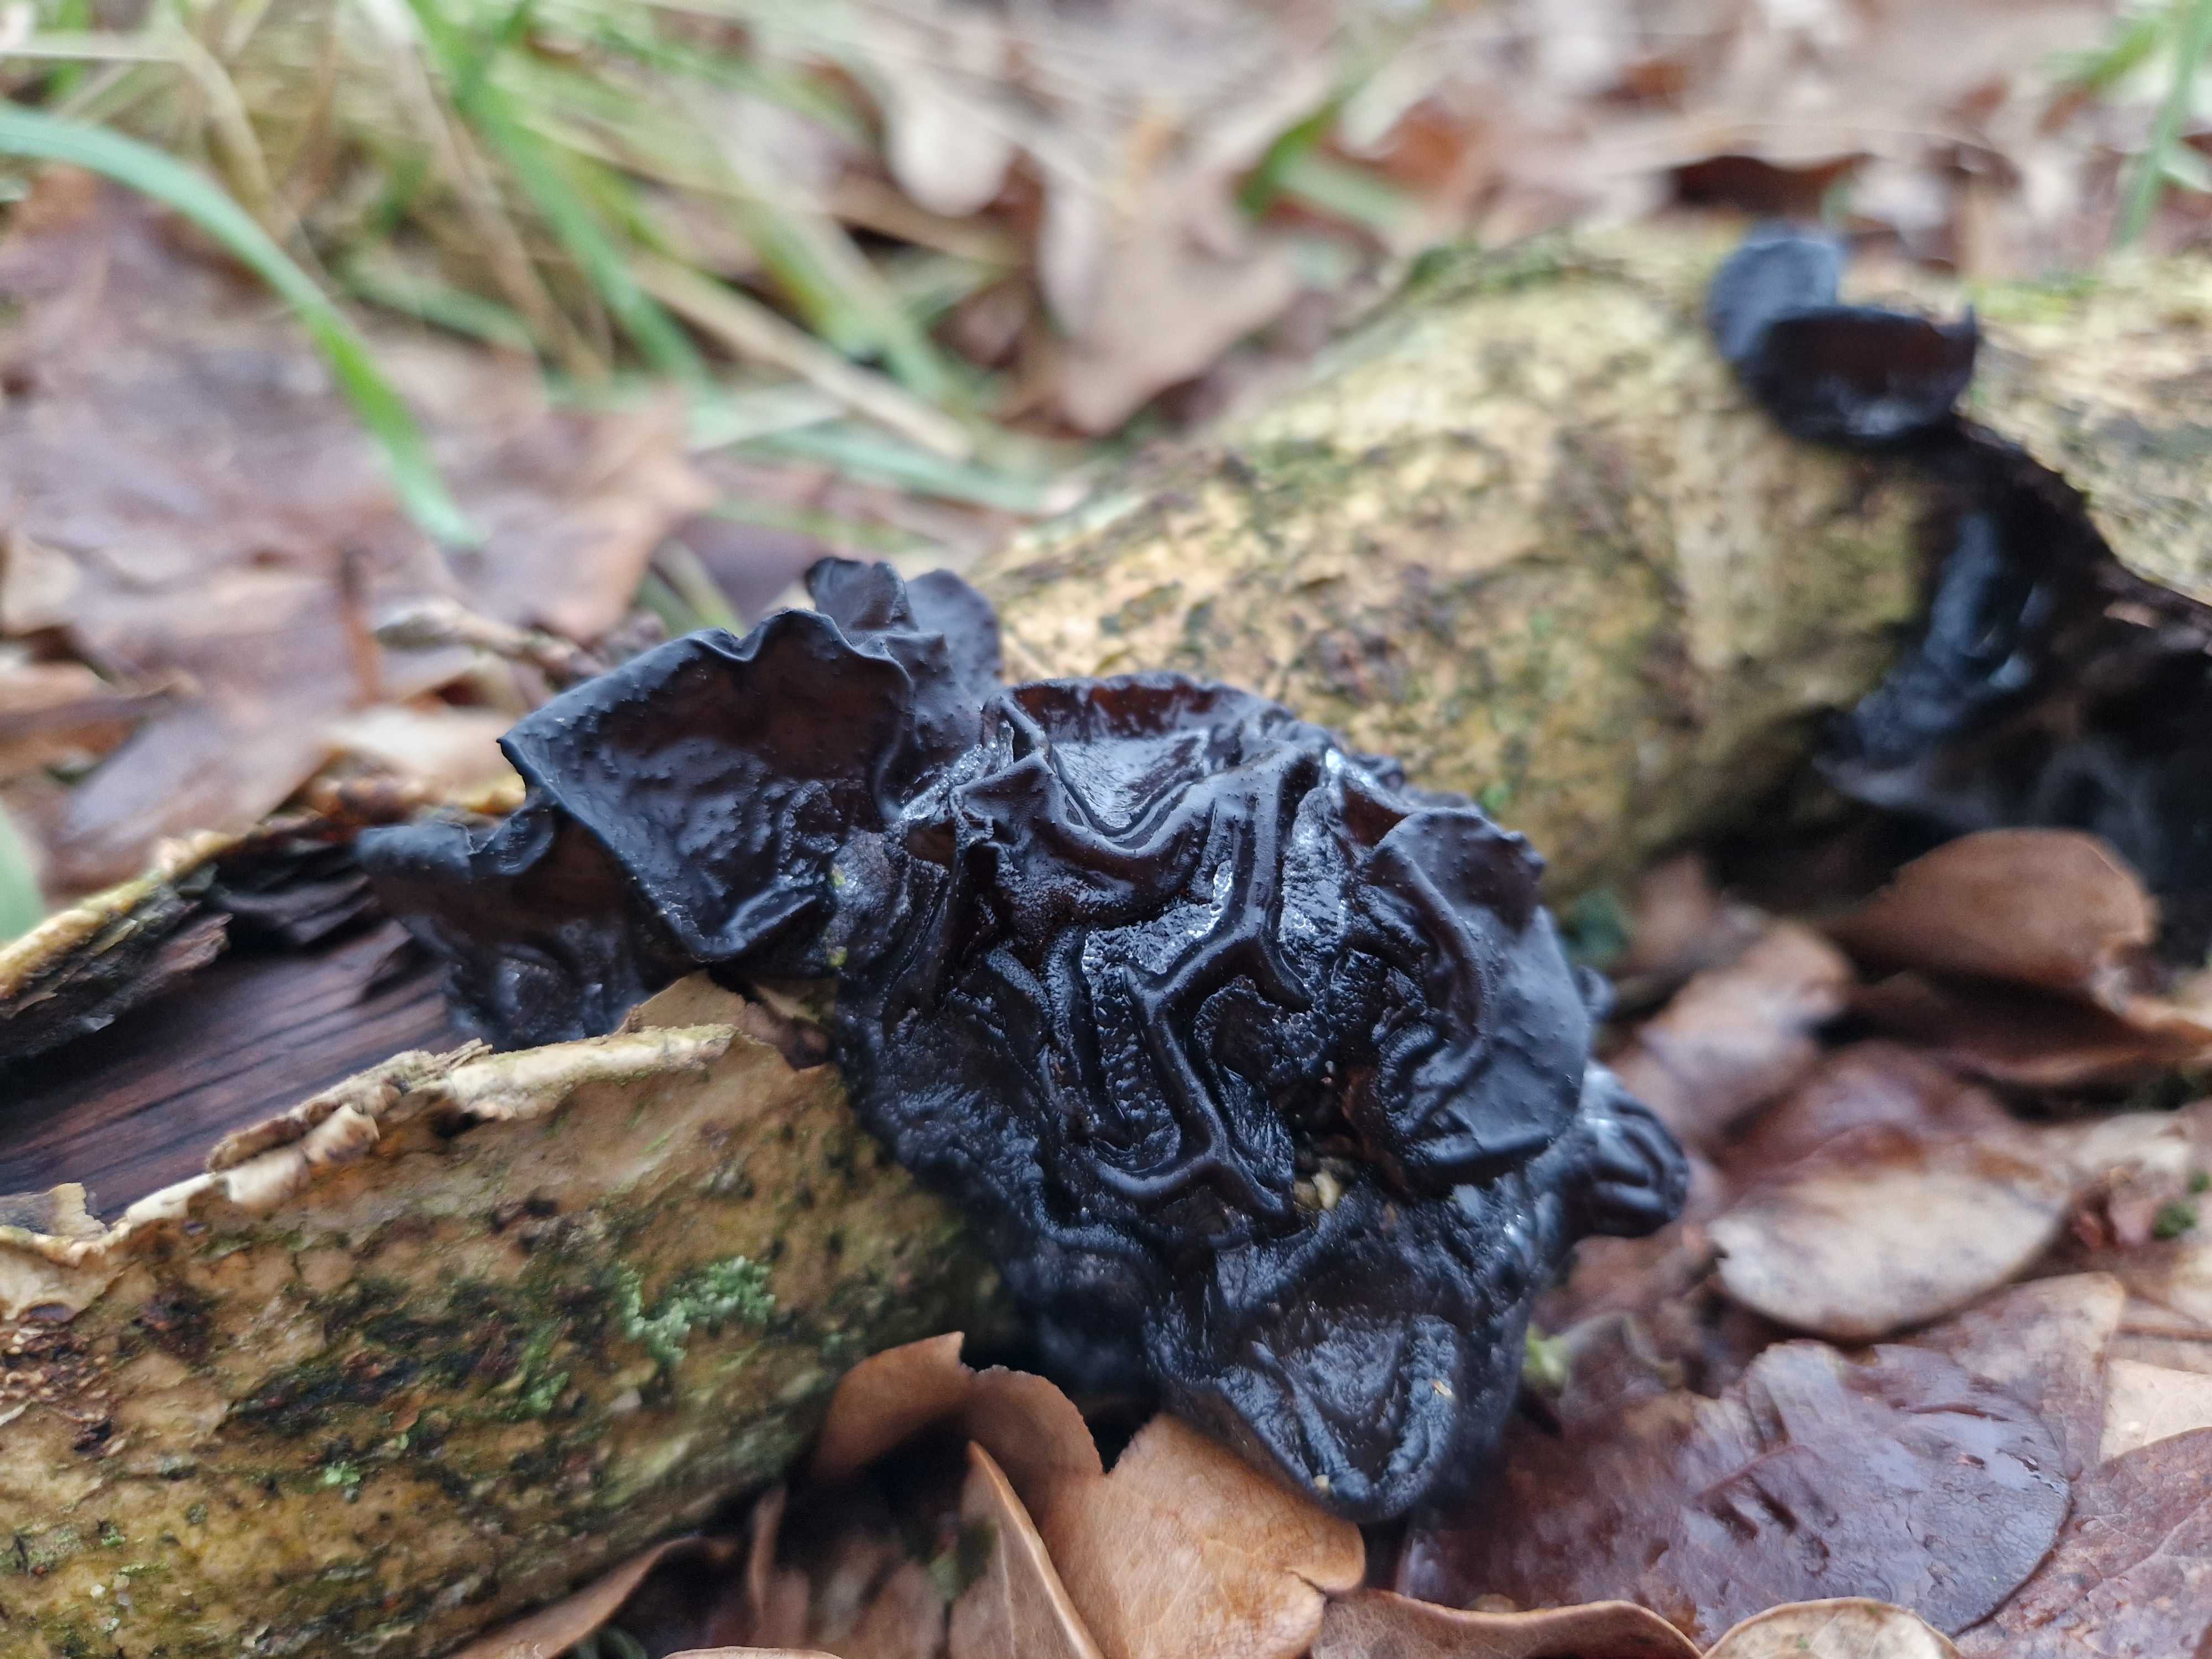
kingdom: Fungi
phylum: Basidiomycota
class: Agaricomycetes
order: Auriculariales
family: Auriculariaceae
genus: Exidia
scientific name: Exidia glandulosa
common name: ege-bævretop
